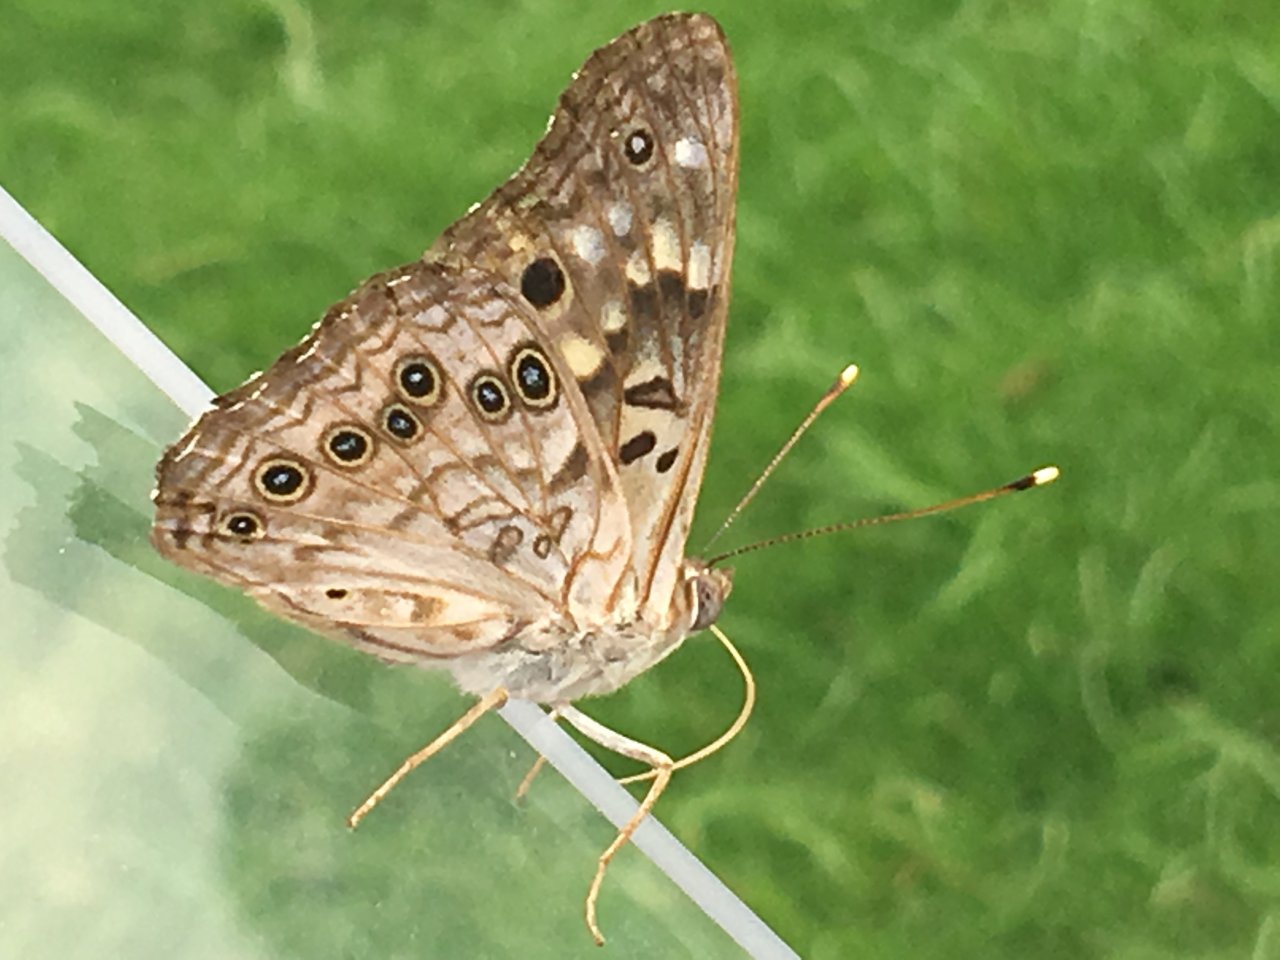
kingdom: Animalia
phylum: Arthropoda
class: Insecta
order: Lepidoptera
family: Nymphalidae
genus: Asterocampa
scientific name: Asterocampa celtis
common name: Hackberry Emperor
